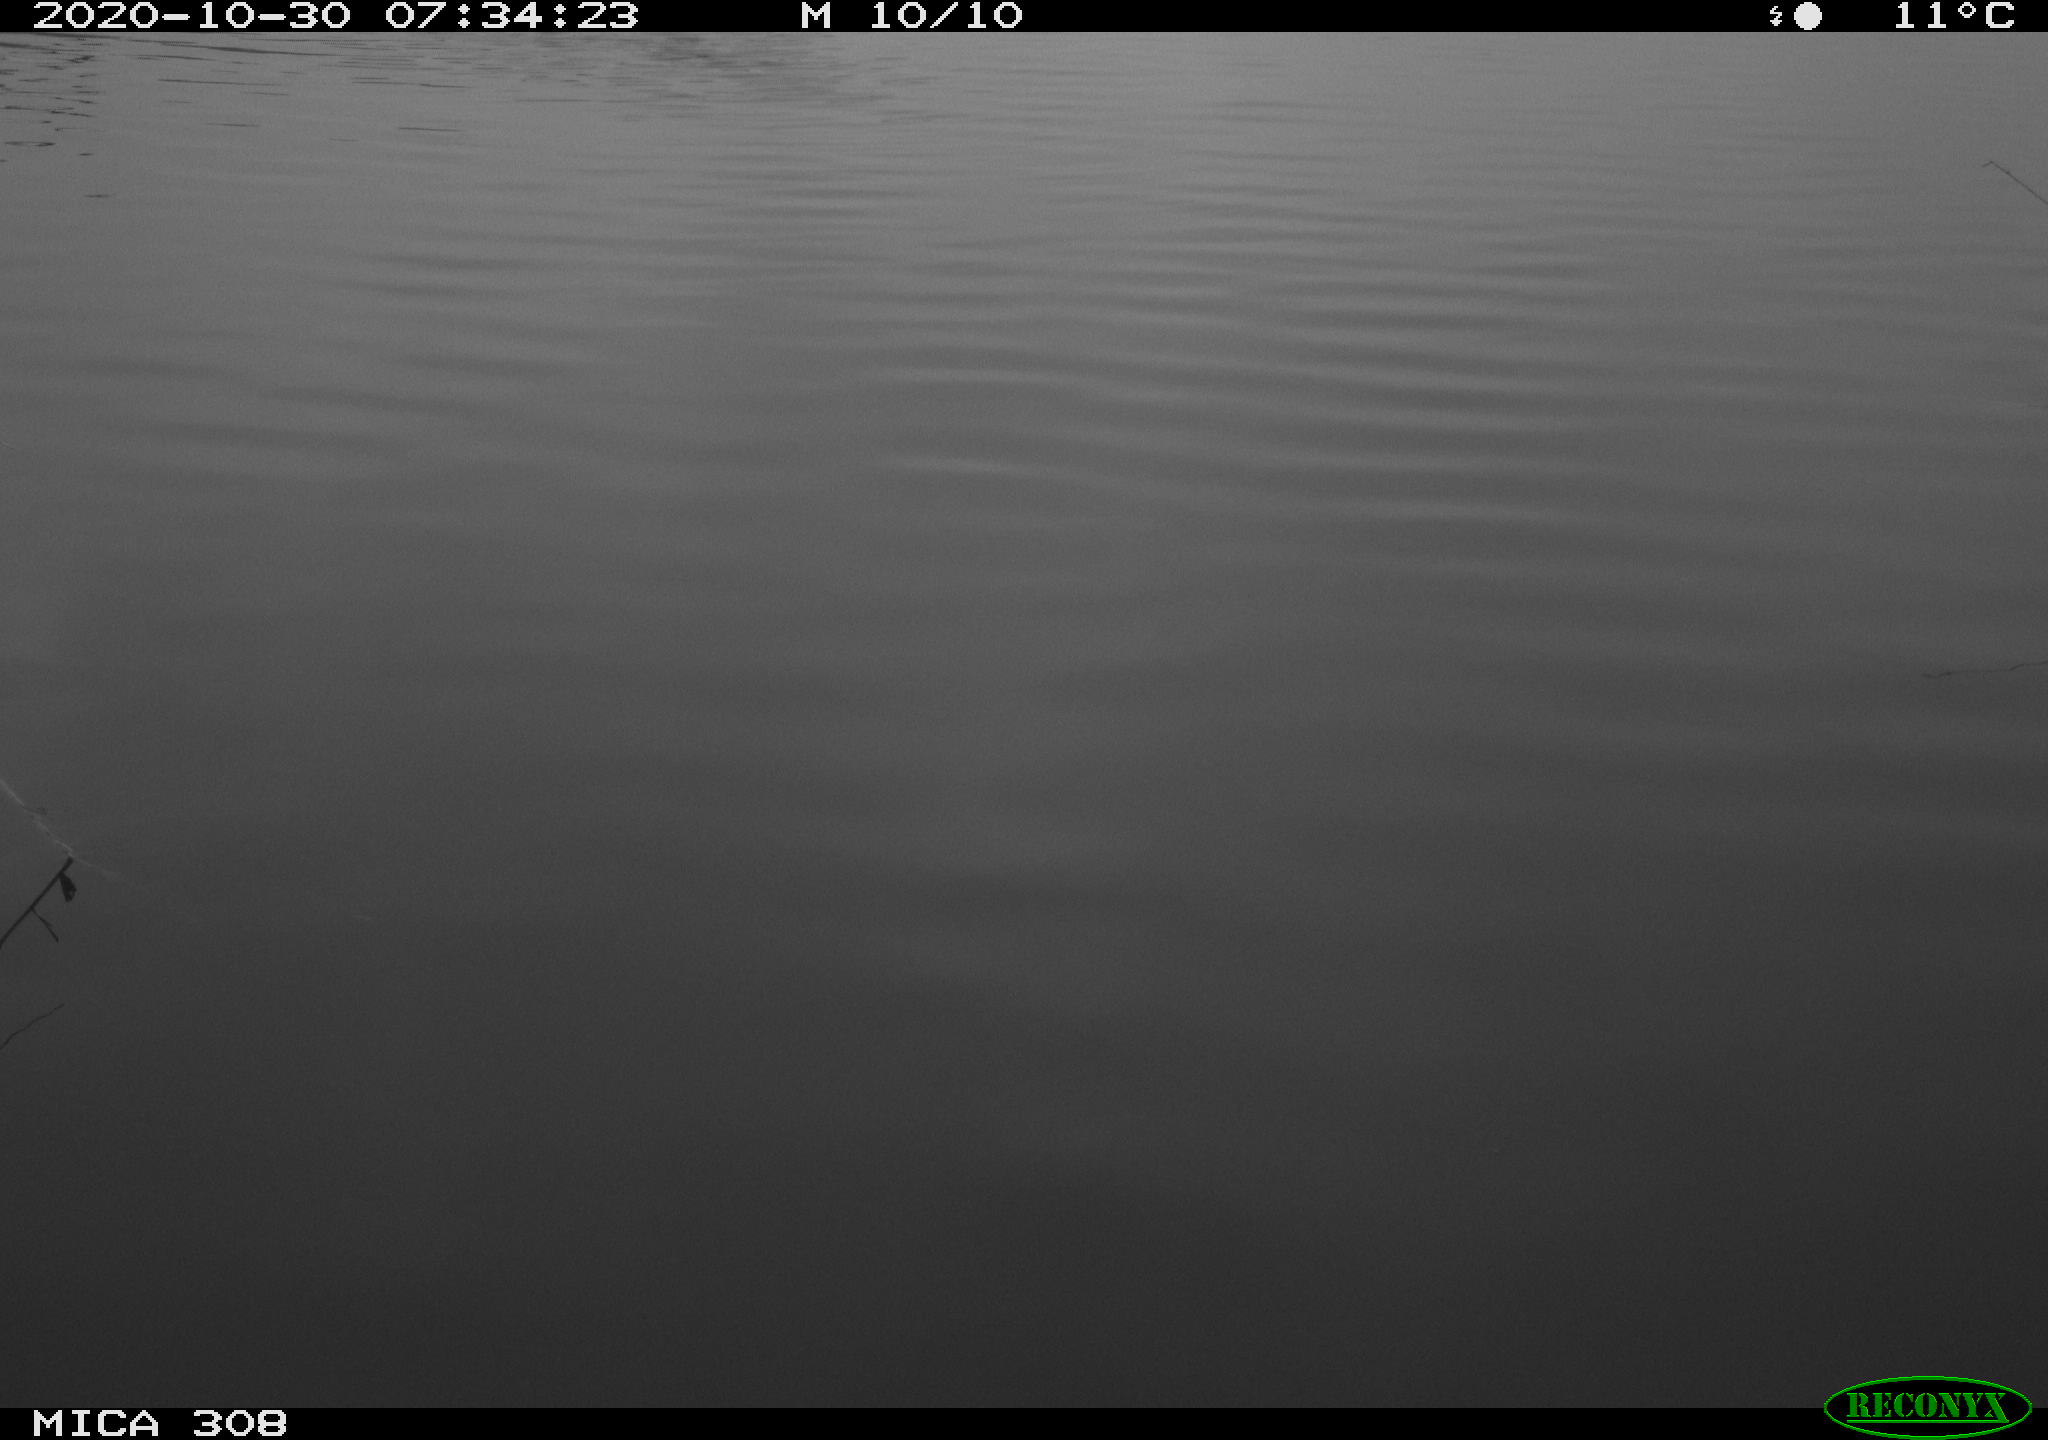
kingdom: Animalia
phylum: Chordata
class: Aves
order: Gruiformes
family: Rallidae
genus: Fulica
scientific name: Fulica atra
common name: Eurasian coot
